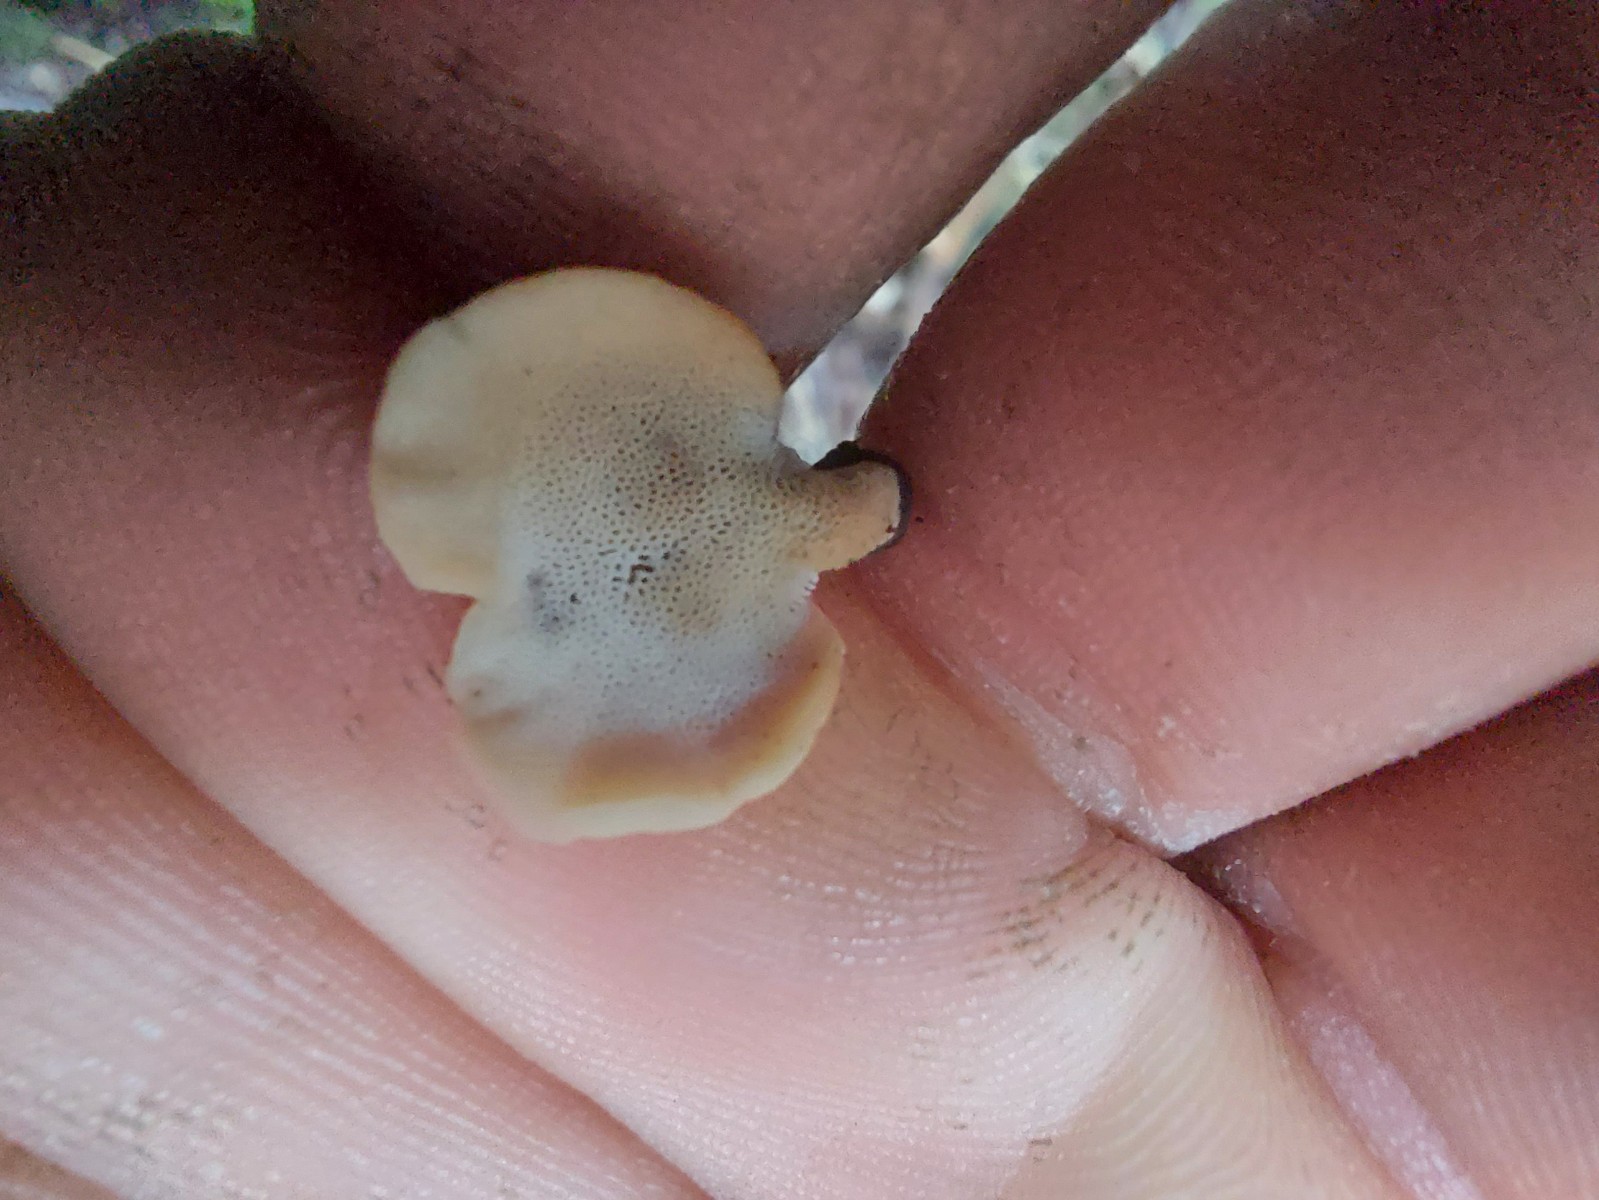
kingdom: Fungi
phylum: Basidiomycota
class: Agaricomycetes
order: Polyporales
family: Polyporaceae
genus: Cerioporus
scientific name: Cerioporus varius
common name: foranderlig stilkporesvamp
